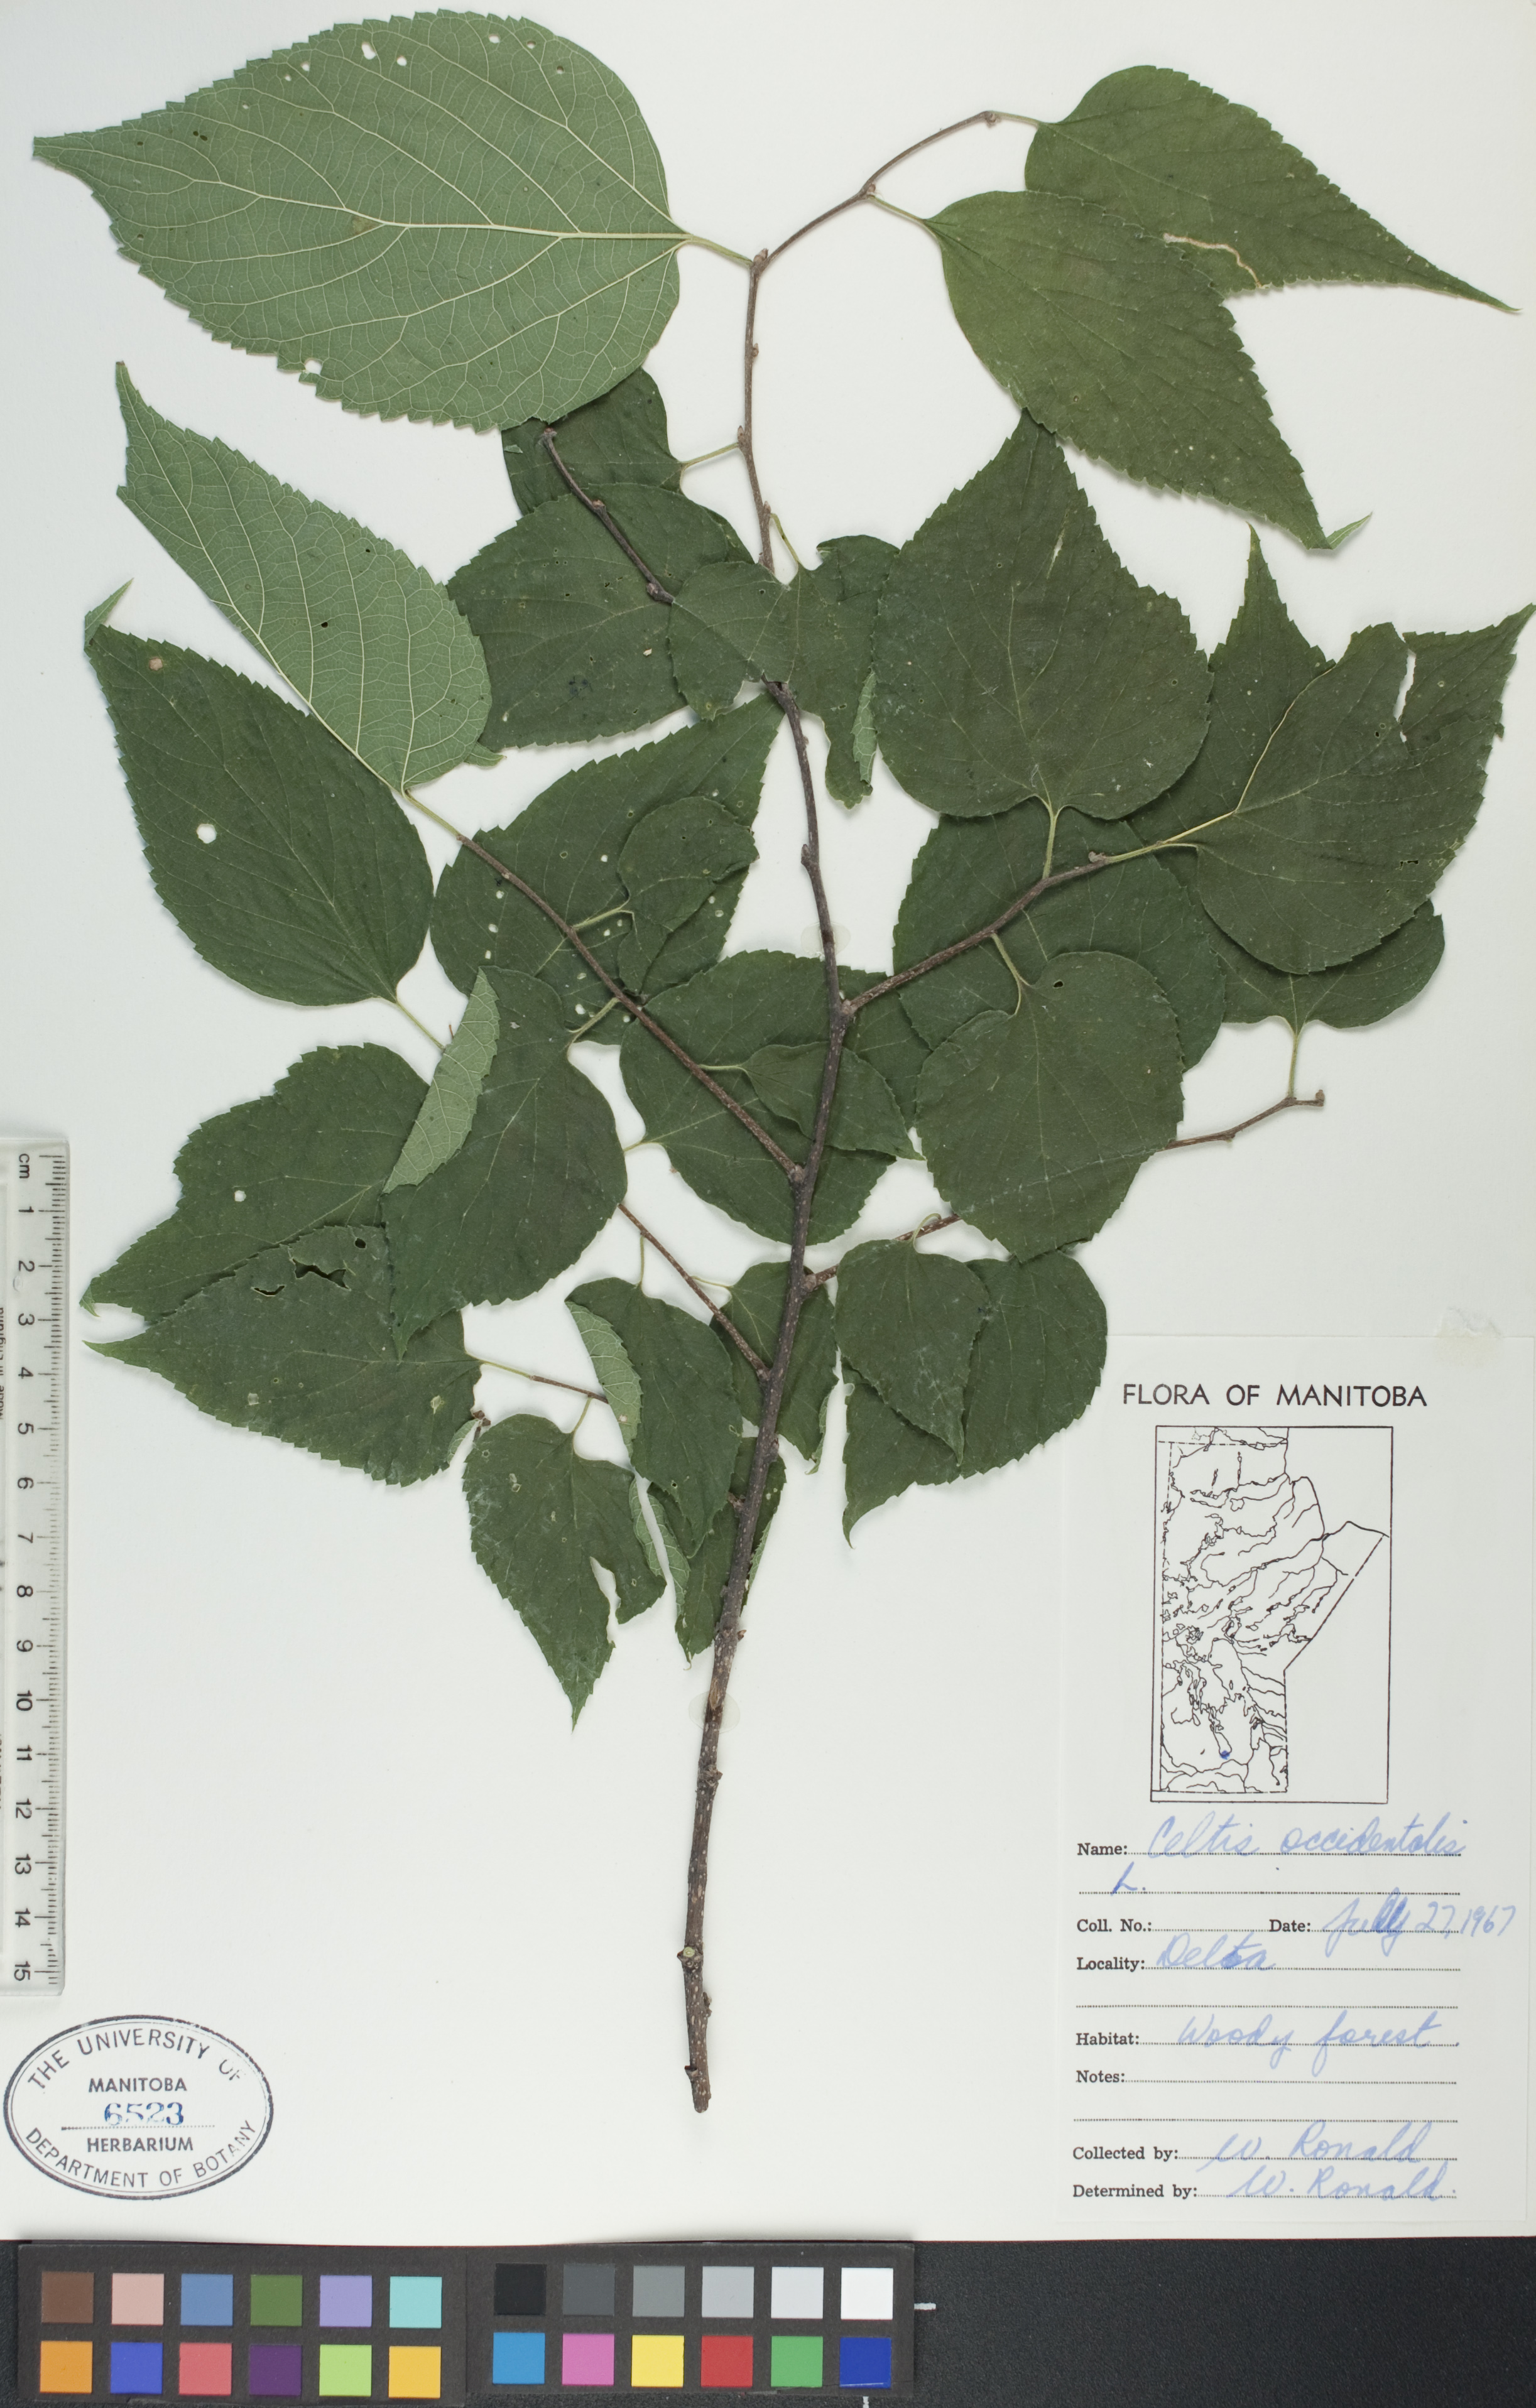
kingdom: Plantae
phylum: Tracheophyta
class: Magnoliopsida
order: Rosales
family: Cannabaceae
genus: Celtis
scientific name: Celtis occidentalis
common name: Common hackberry
